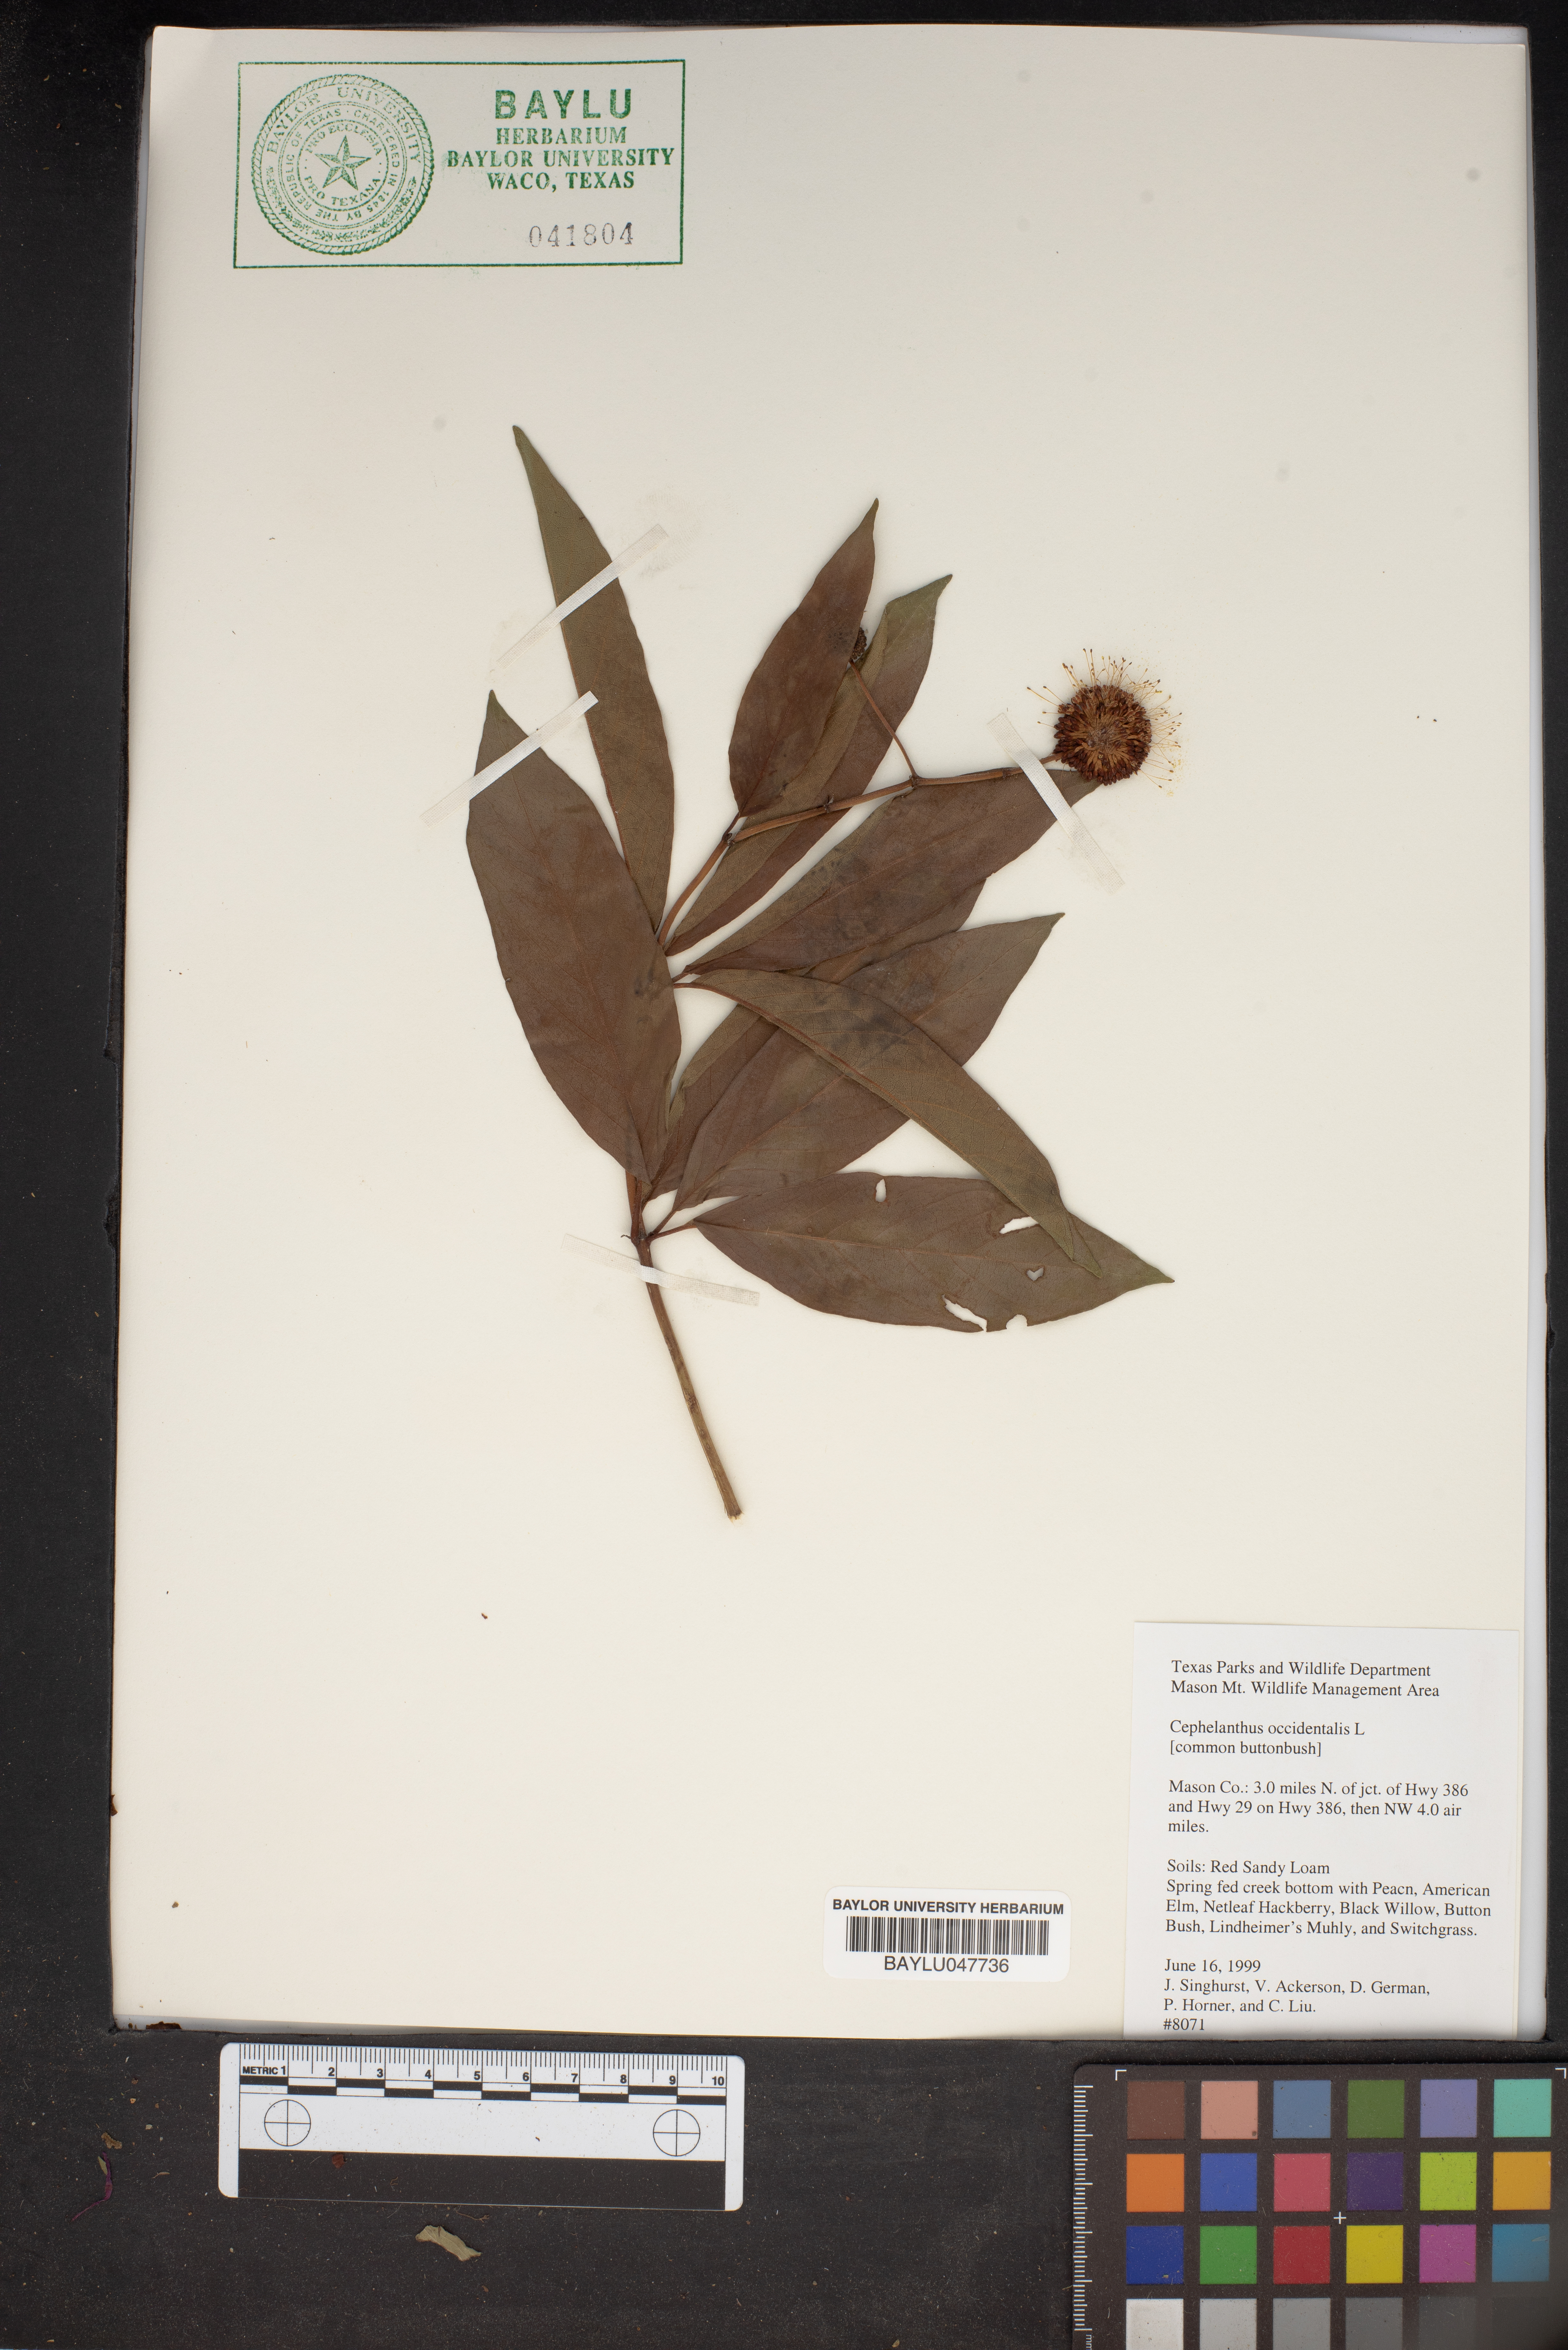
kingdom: Plantae
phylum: Tracheophyta
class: Magnoliopsida
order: Gentianales
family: Rubiaceae
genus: Cephalanthus
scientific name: Cephalanthus occidentalis
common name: Button-willow
